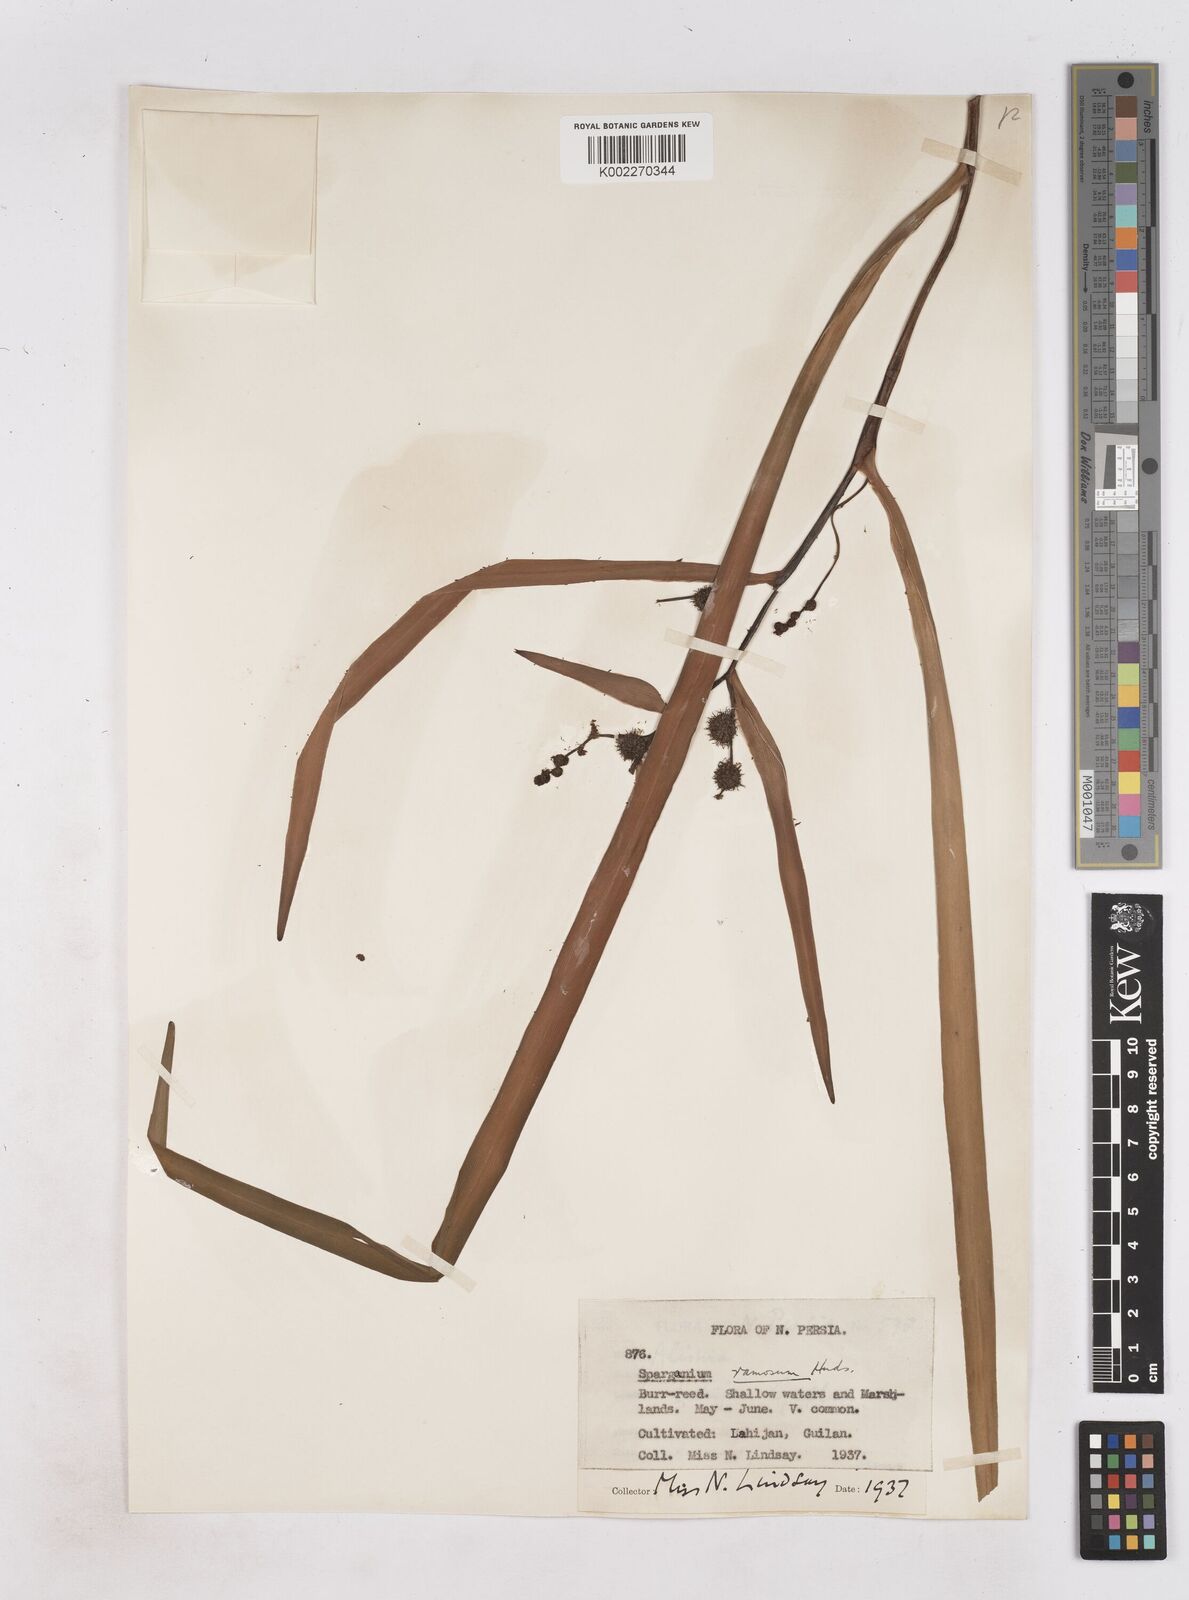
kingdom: Plantae
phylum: Tracheophyta
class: Liliopsida
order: Poales
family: Typhaceae
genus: Sparganium
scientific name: Sparganium erectum
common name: Branched bur-reed
